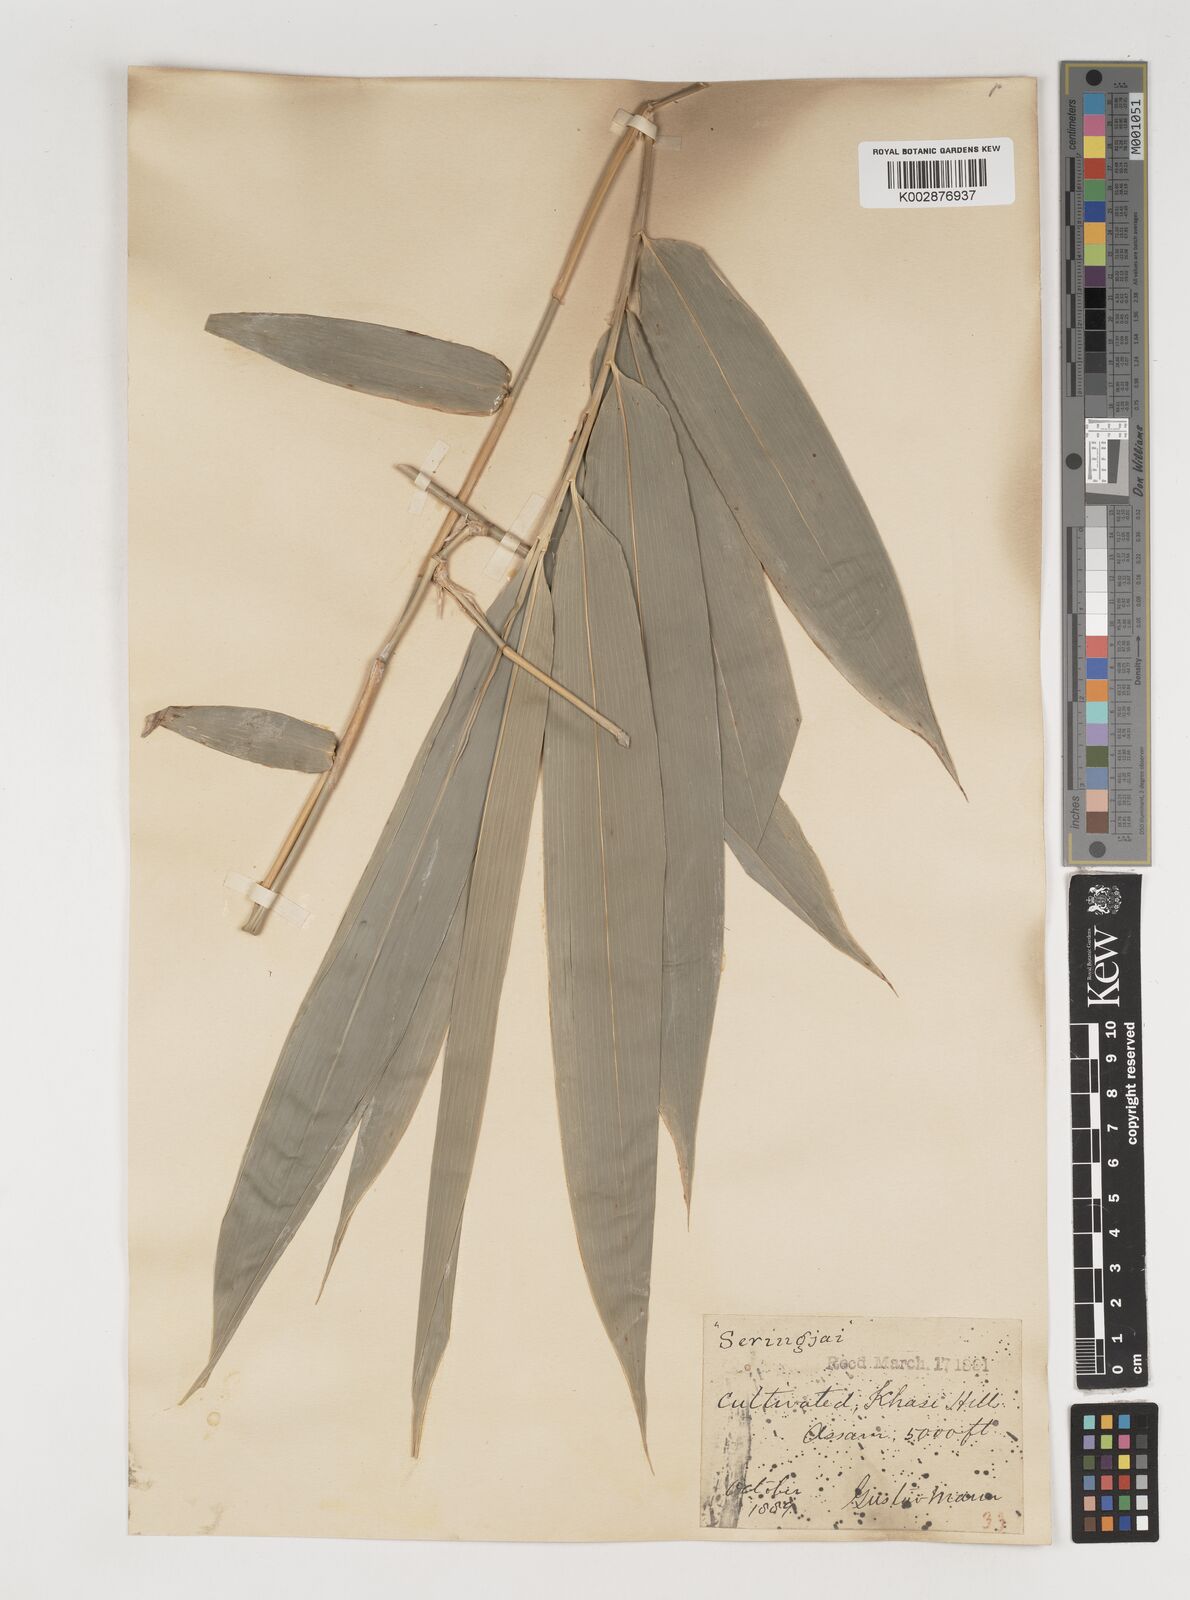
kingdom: Plantae
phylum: Tracheophyta
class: Liliopsida
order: Poales
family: Poaceae
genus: Bambusa
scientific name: Bambusa tulda
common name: Bengal bamboo
